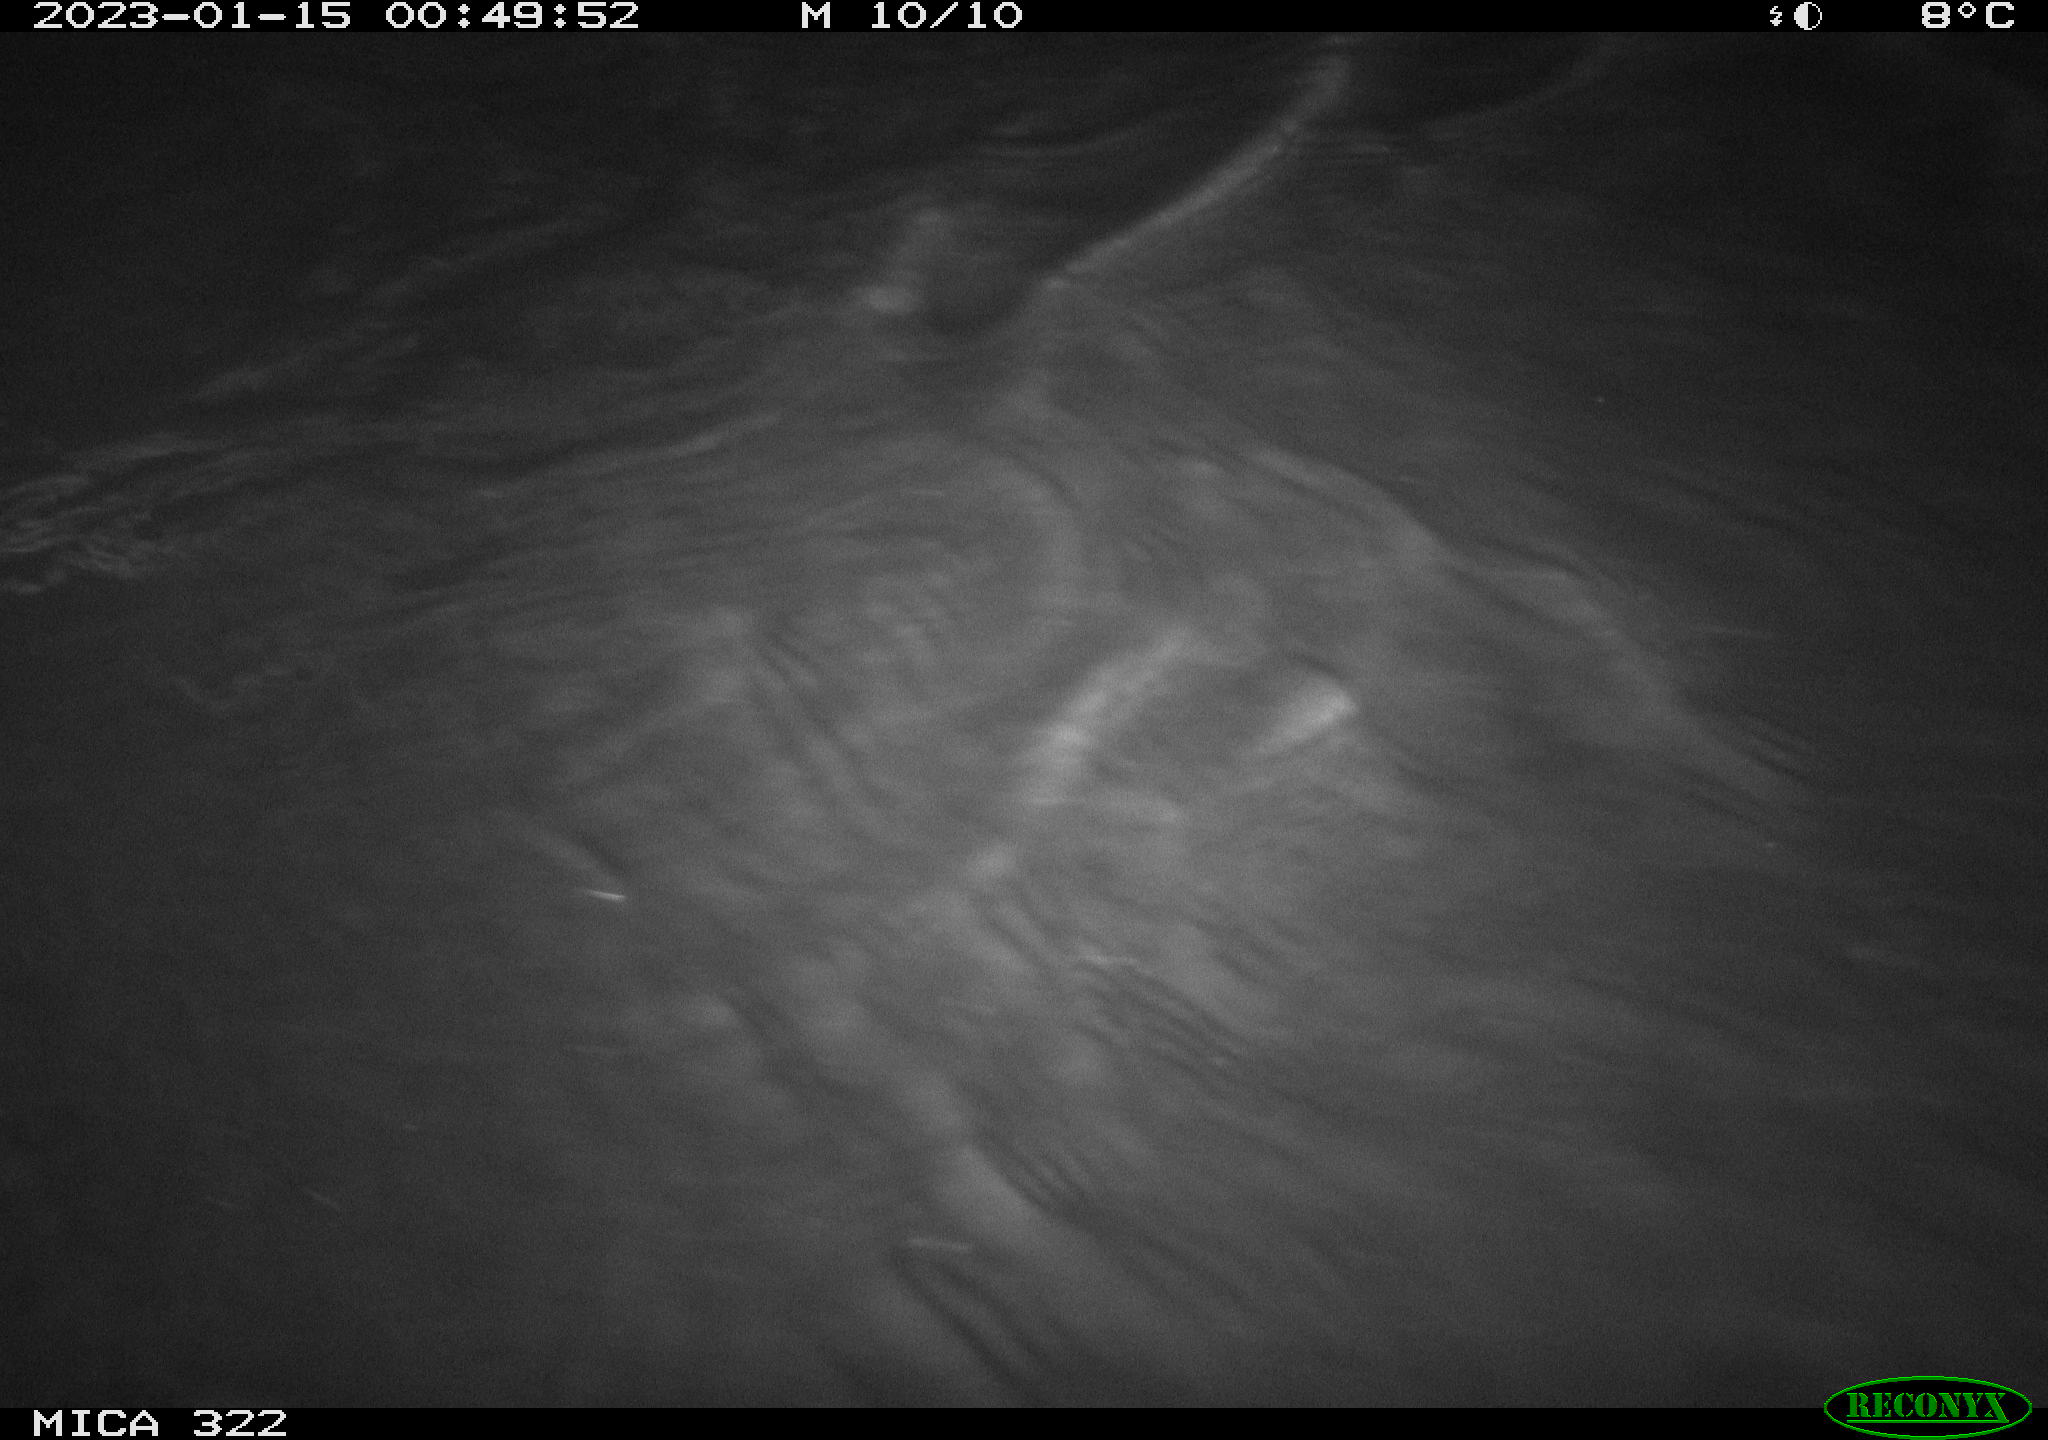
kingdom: Animalia
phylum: Chordata
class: Aves
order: Anseriformes
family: Anatidae
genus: Anas
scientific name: Anas
